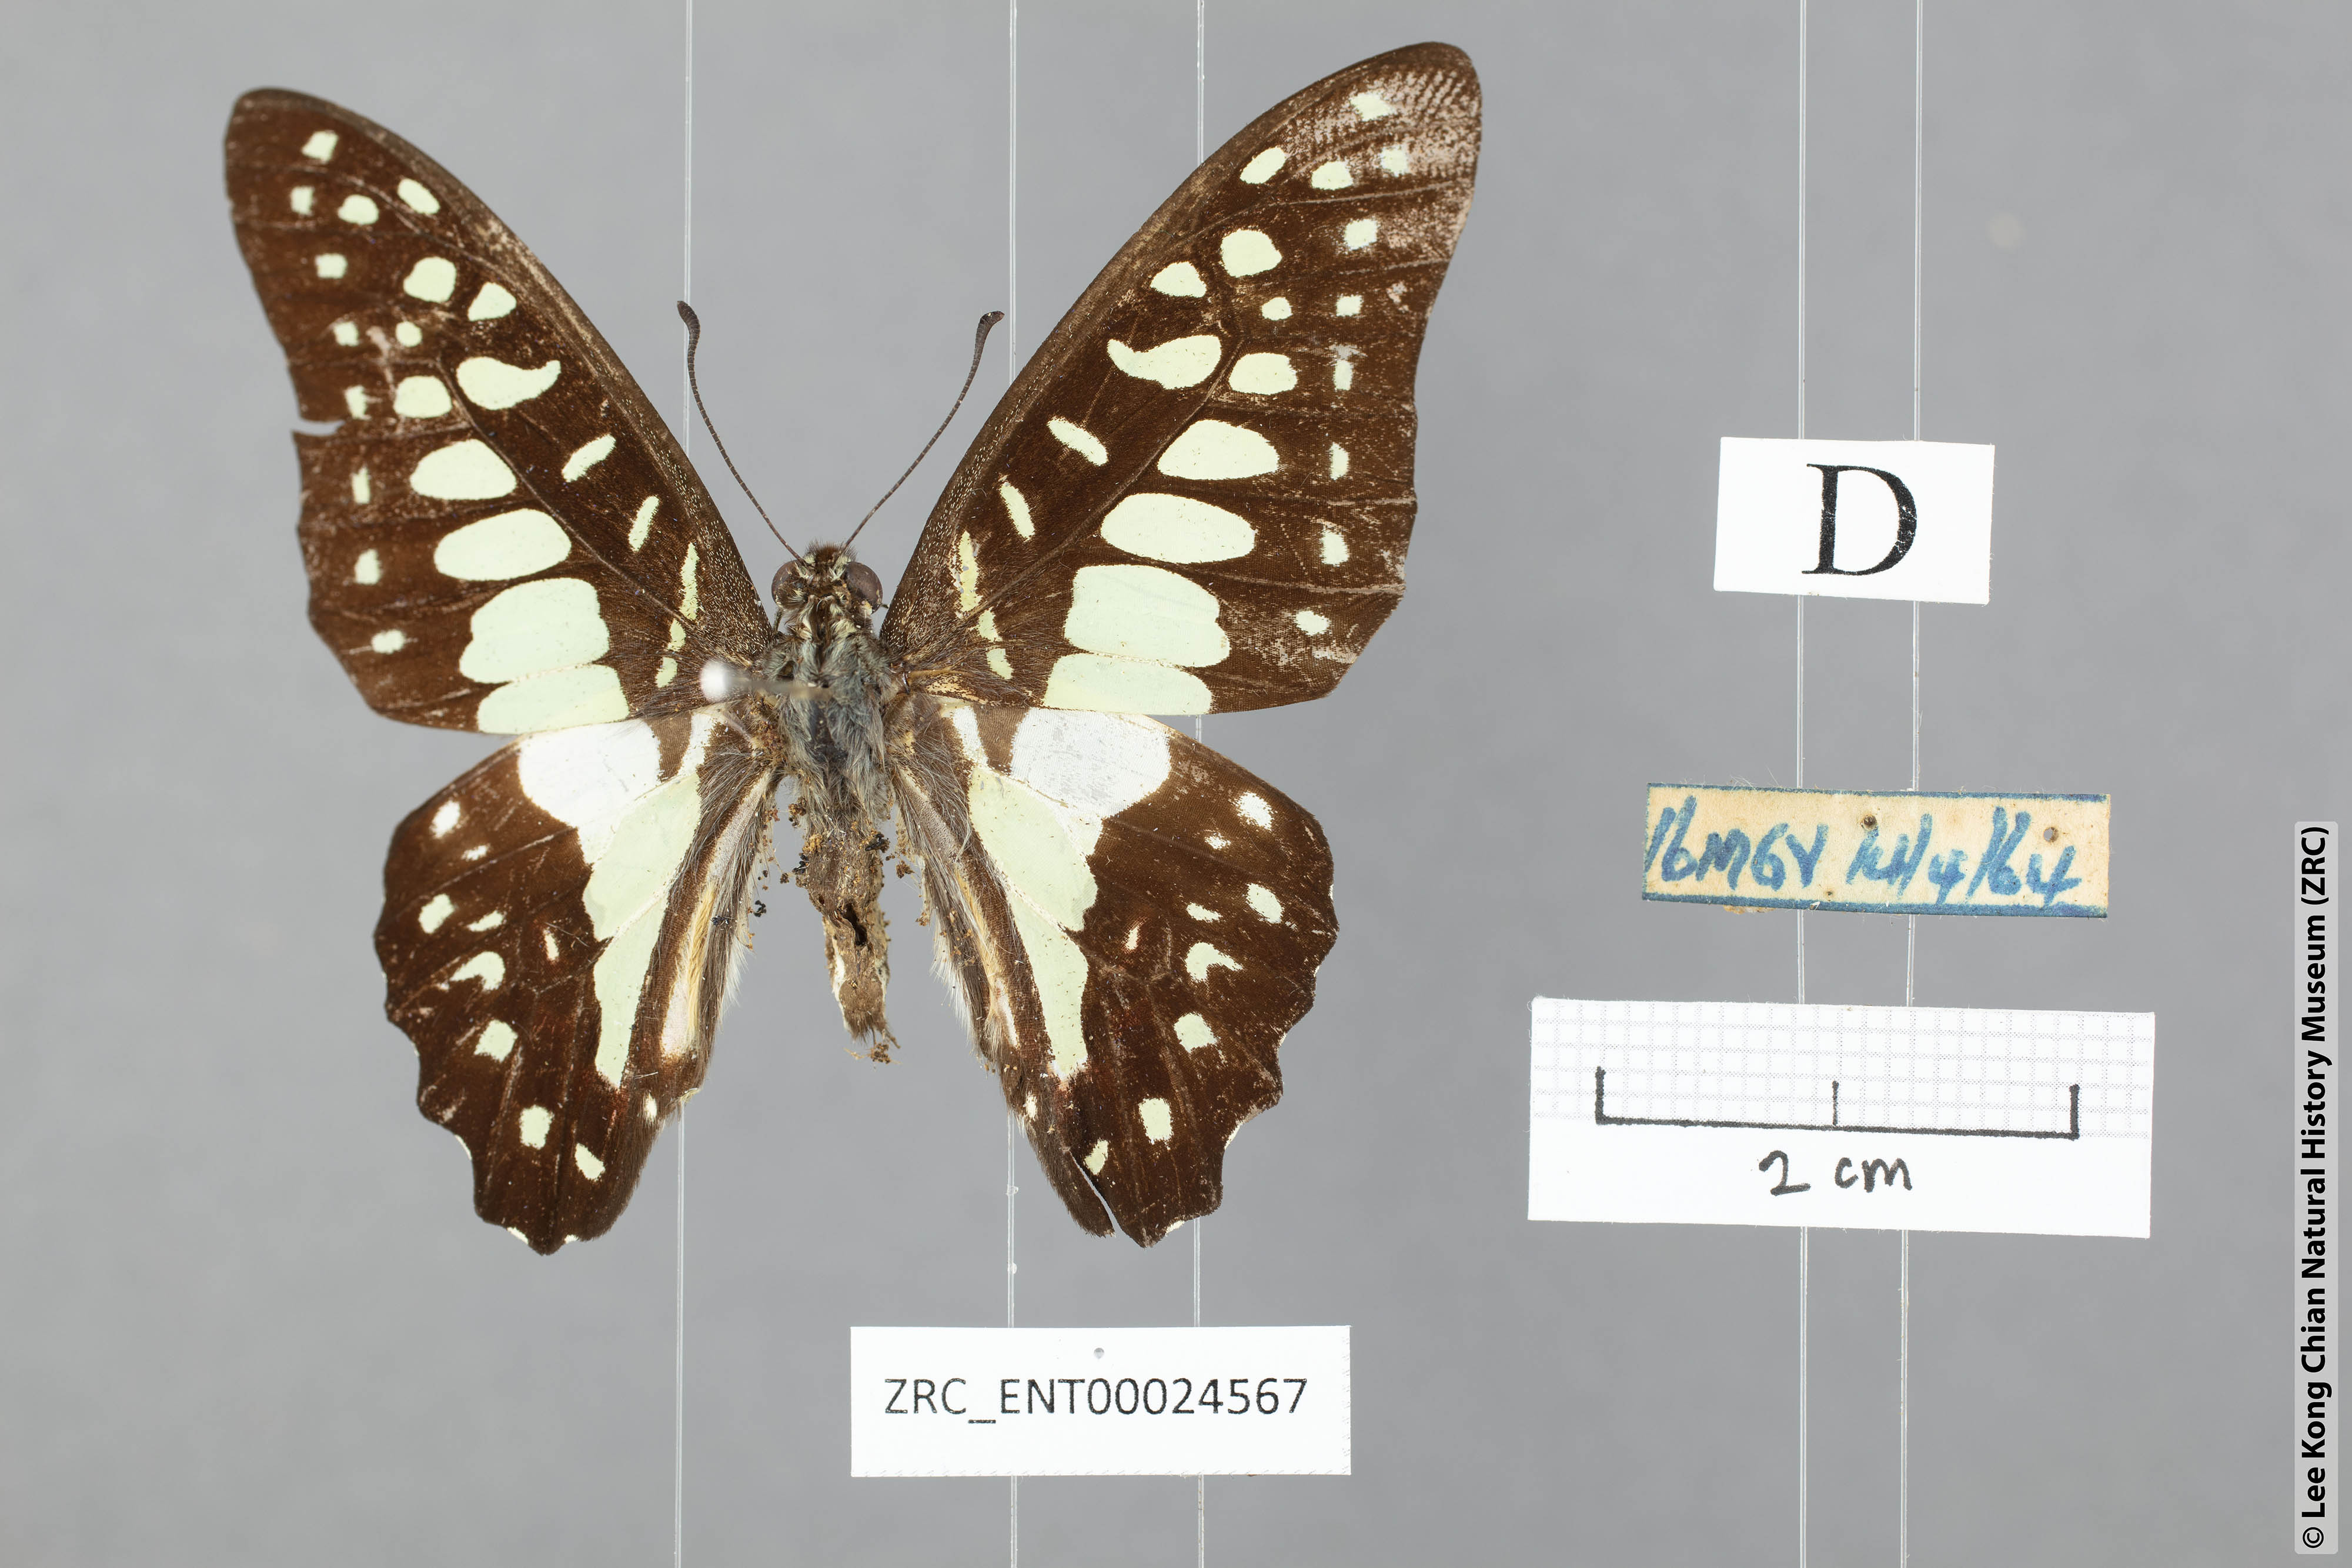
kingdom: Animalia
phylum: Arthropoda
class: Insecta
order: Lepidoptera
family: Papilionidae
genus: Graphium
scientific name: Graphium doson
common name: Common jay
